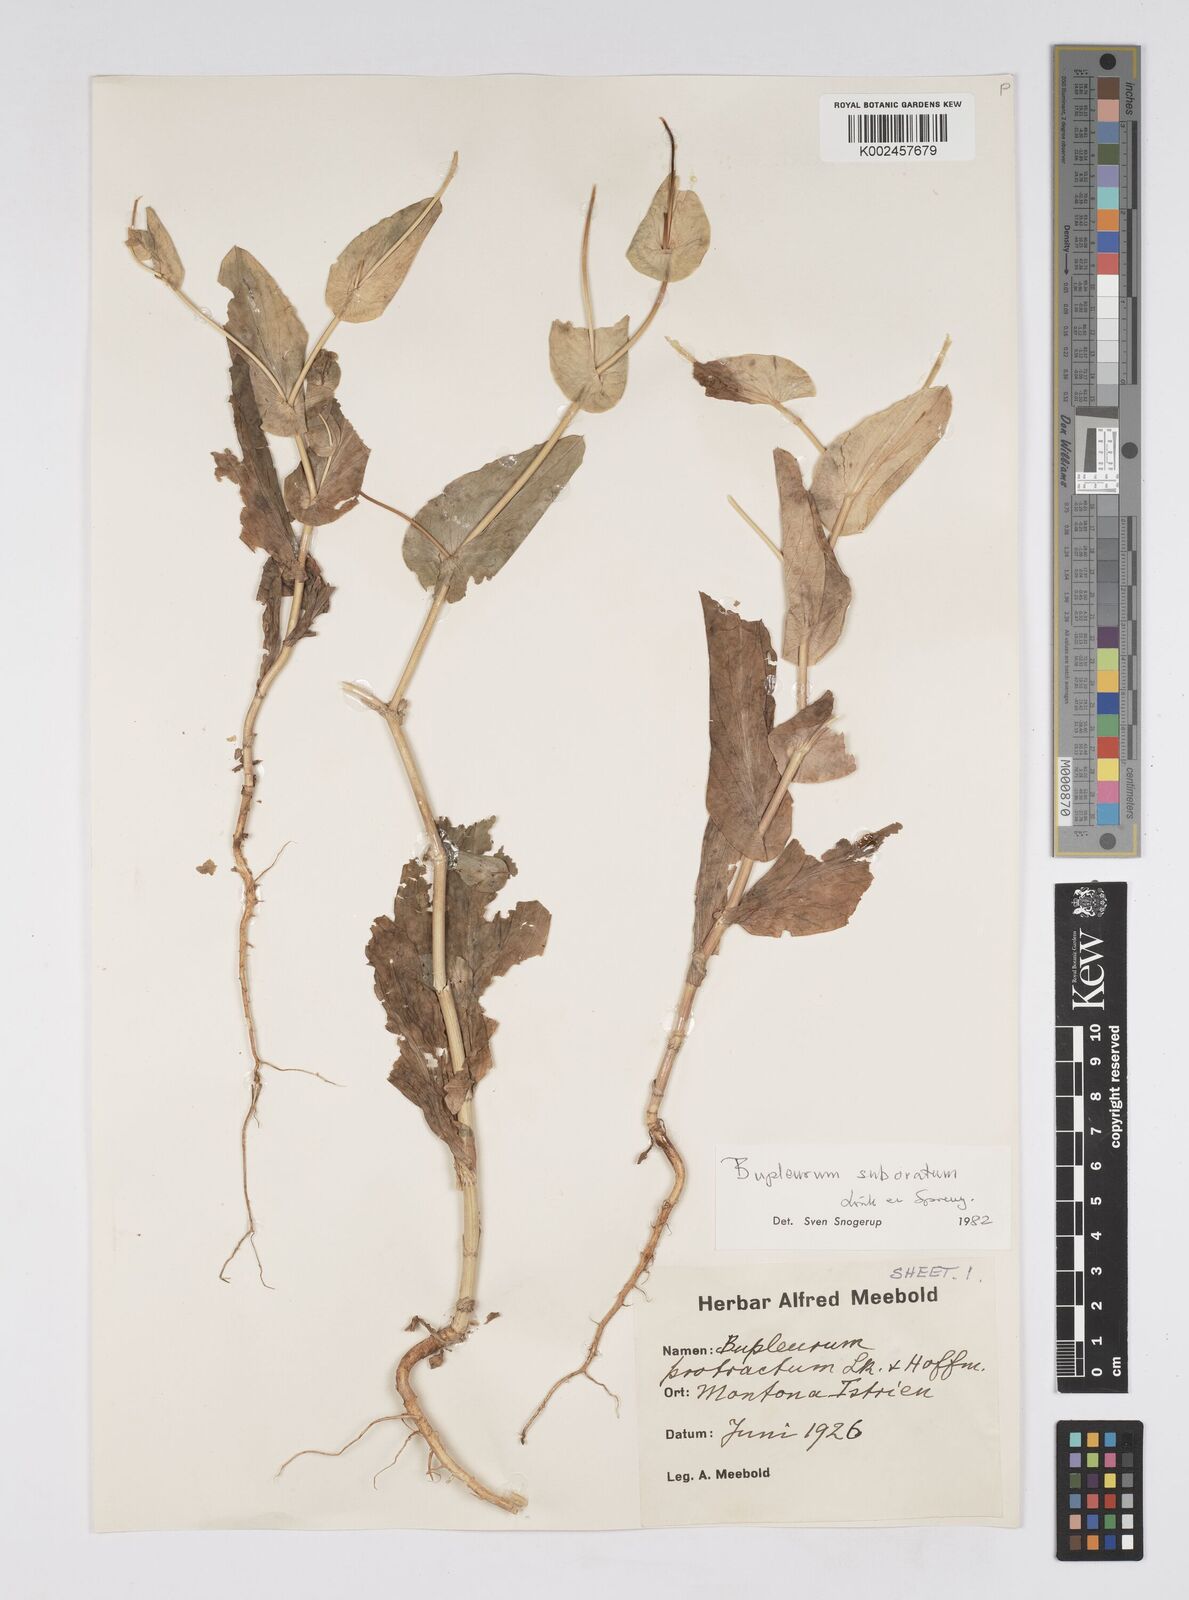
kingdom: Plantae
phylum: Tracheophyta
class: Magnoliopsida
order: Apiales
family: Apiaceae
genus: Bupleurum
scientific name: Bupleurum lancifolium
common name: False thorow-wax
